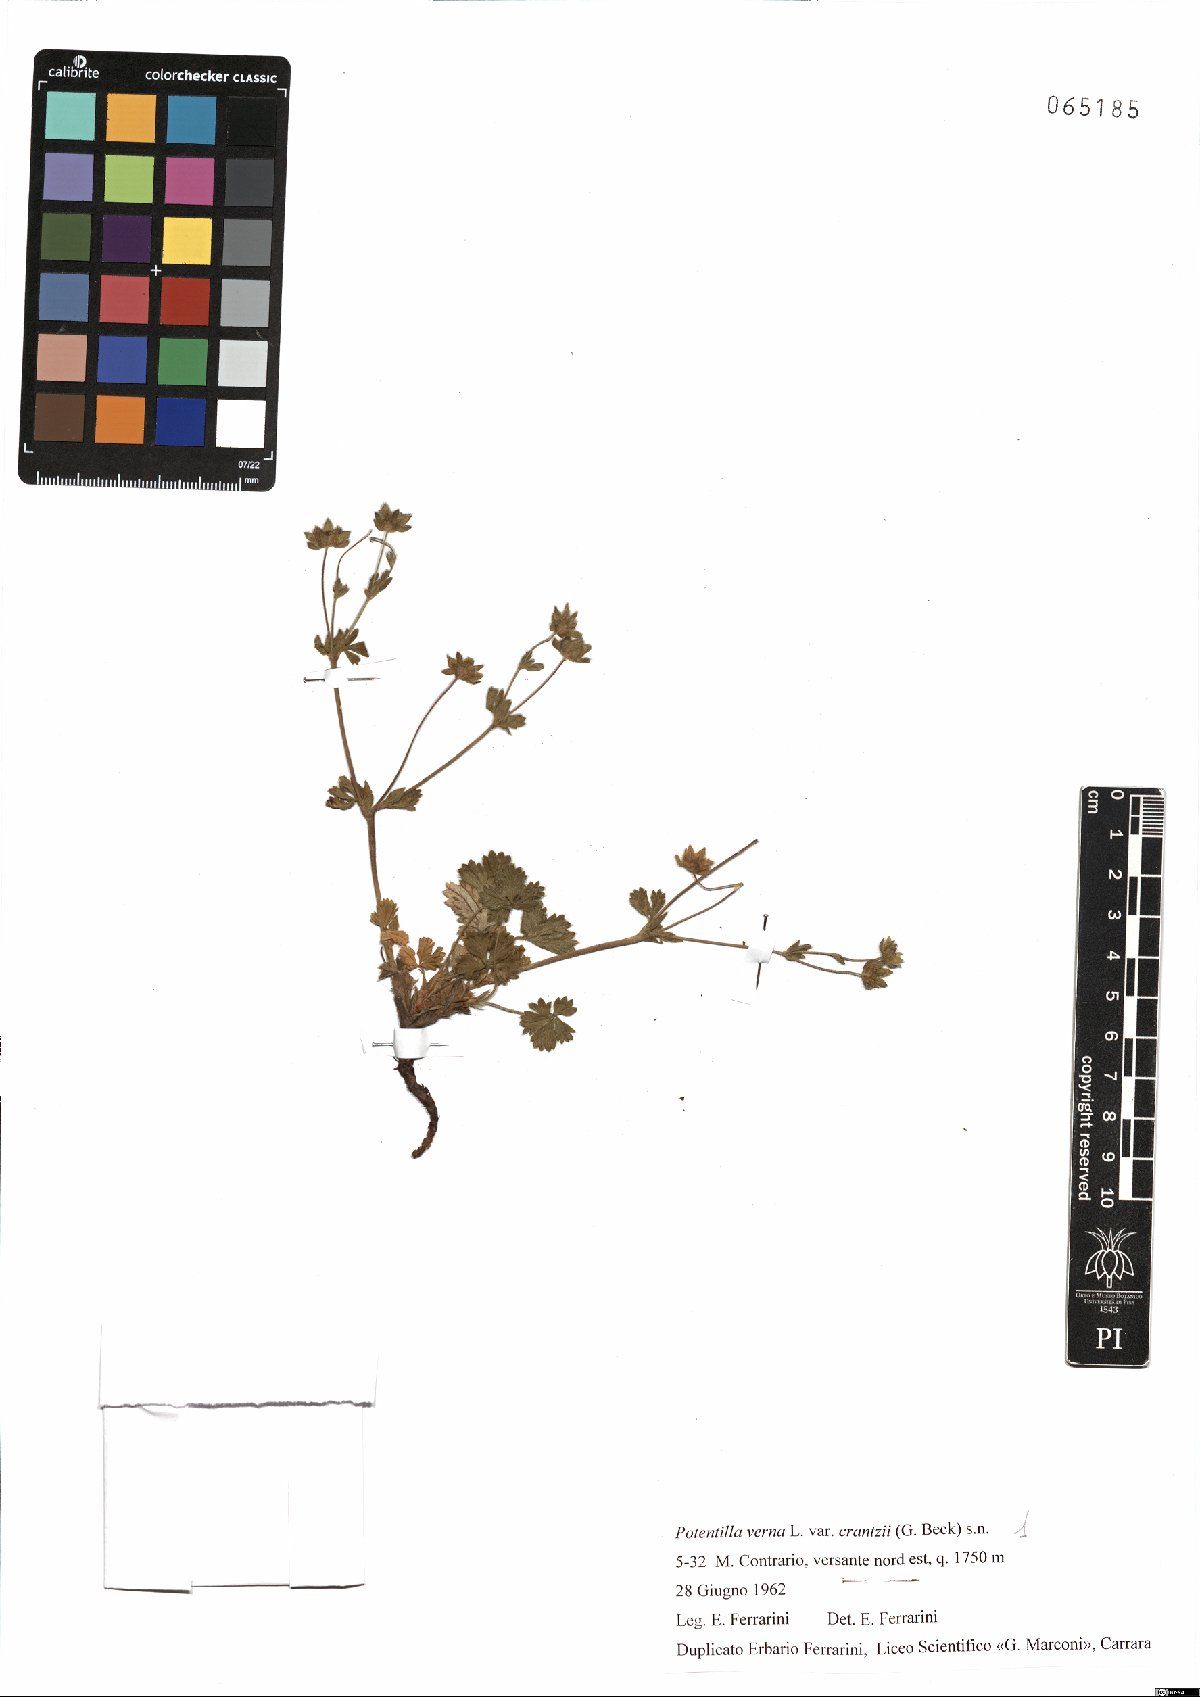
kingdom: Plantae
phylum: Tracheophyta
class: Magnoliopsida
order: Rosales
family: Rosaceae
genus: Potentilla
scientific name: Potentilla crantzii
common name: Alpine cinquefoil
